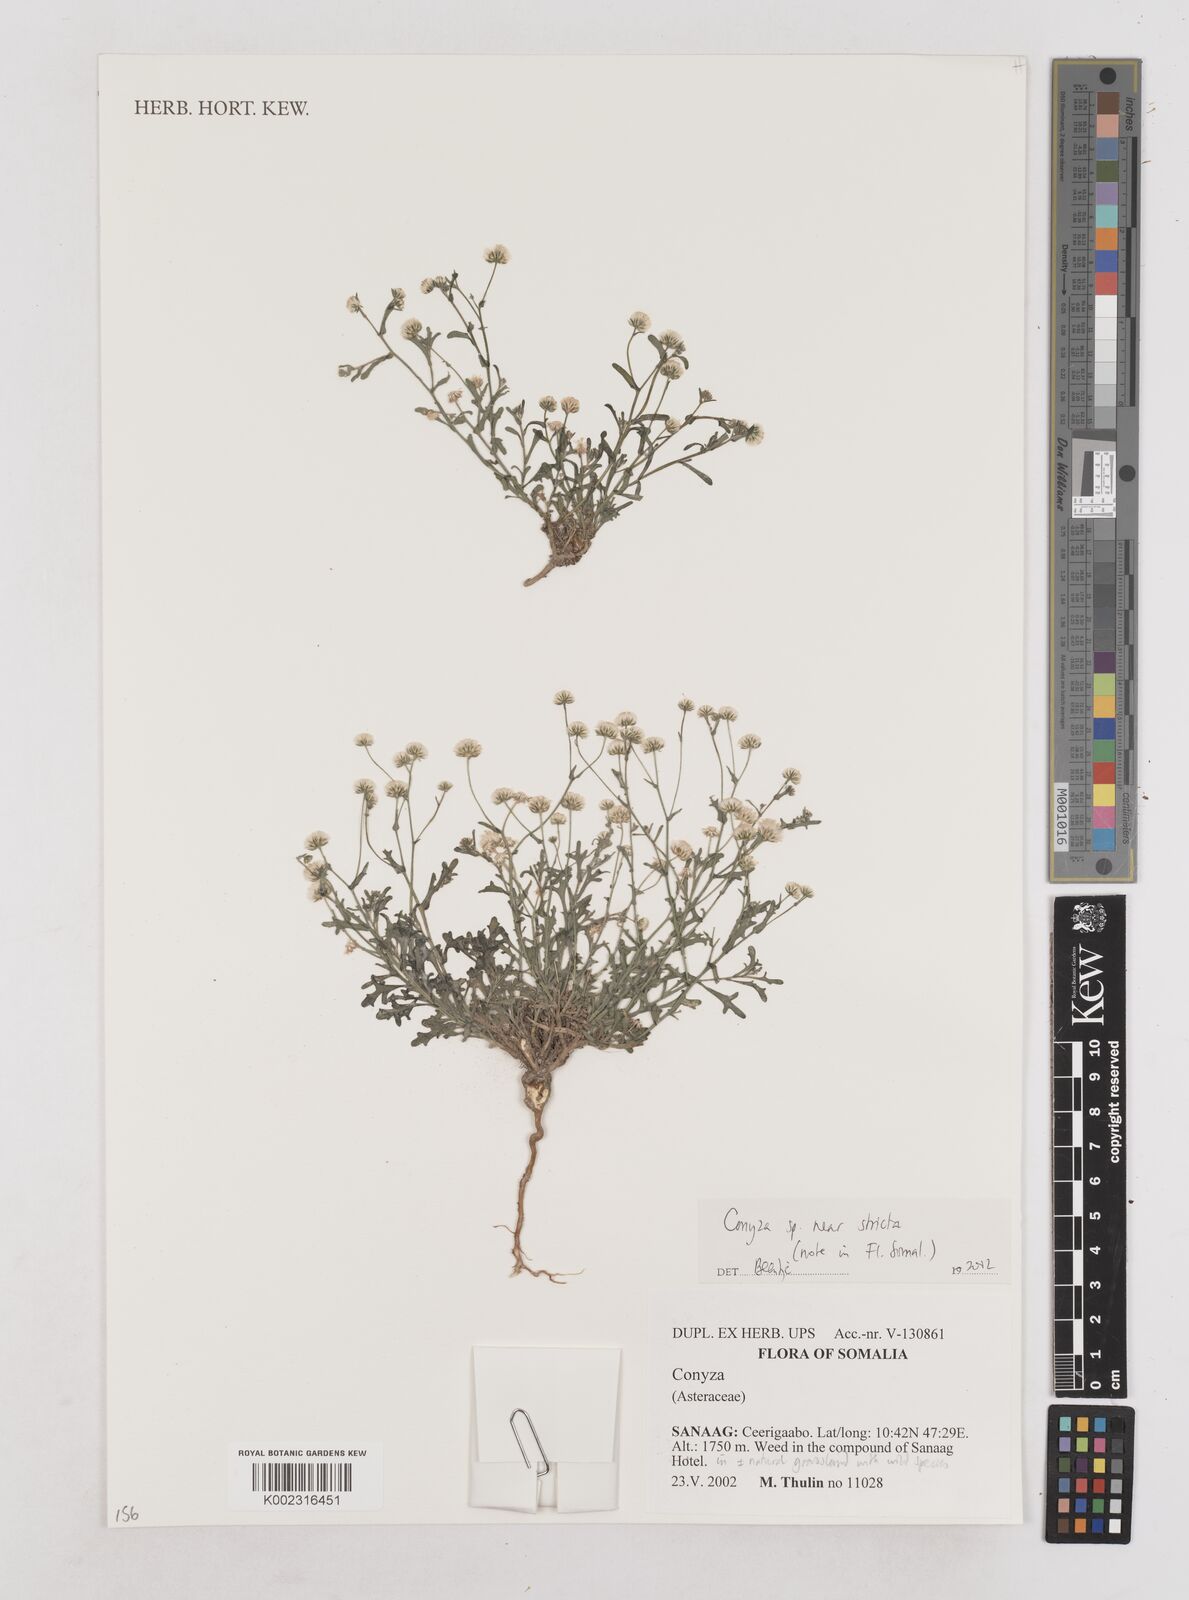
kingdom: Plantae
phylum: Tracheophyta
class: Magnoliopsida
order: Asterales
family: Asteraceae
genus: Nidorella
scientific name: Nidorella triloba
